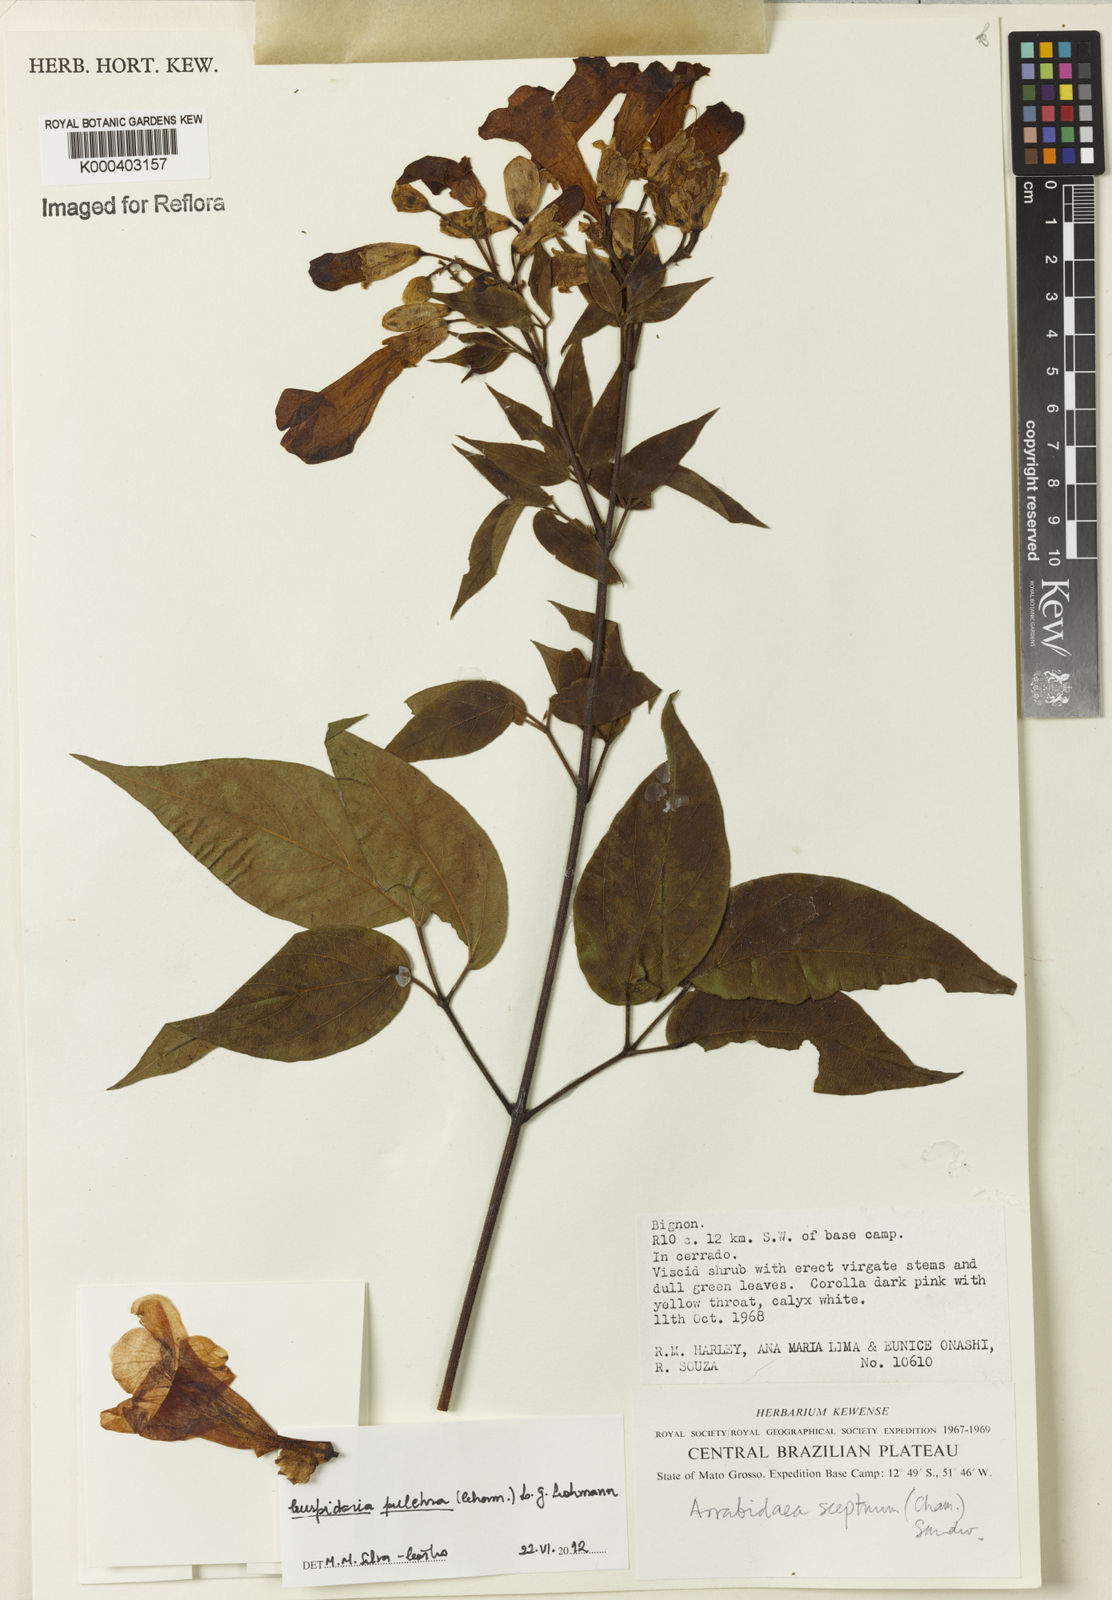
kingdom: Plantae
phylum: Tracheophyta
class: Magnoliopsida
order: Lamiales
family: Bignoniaceae
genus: Cuspidaria
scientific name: Cuspidaria sceptrum
